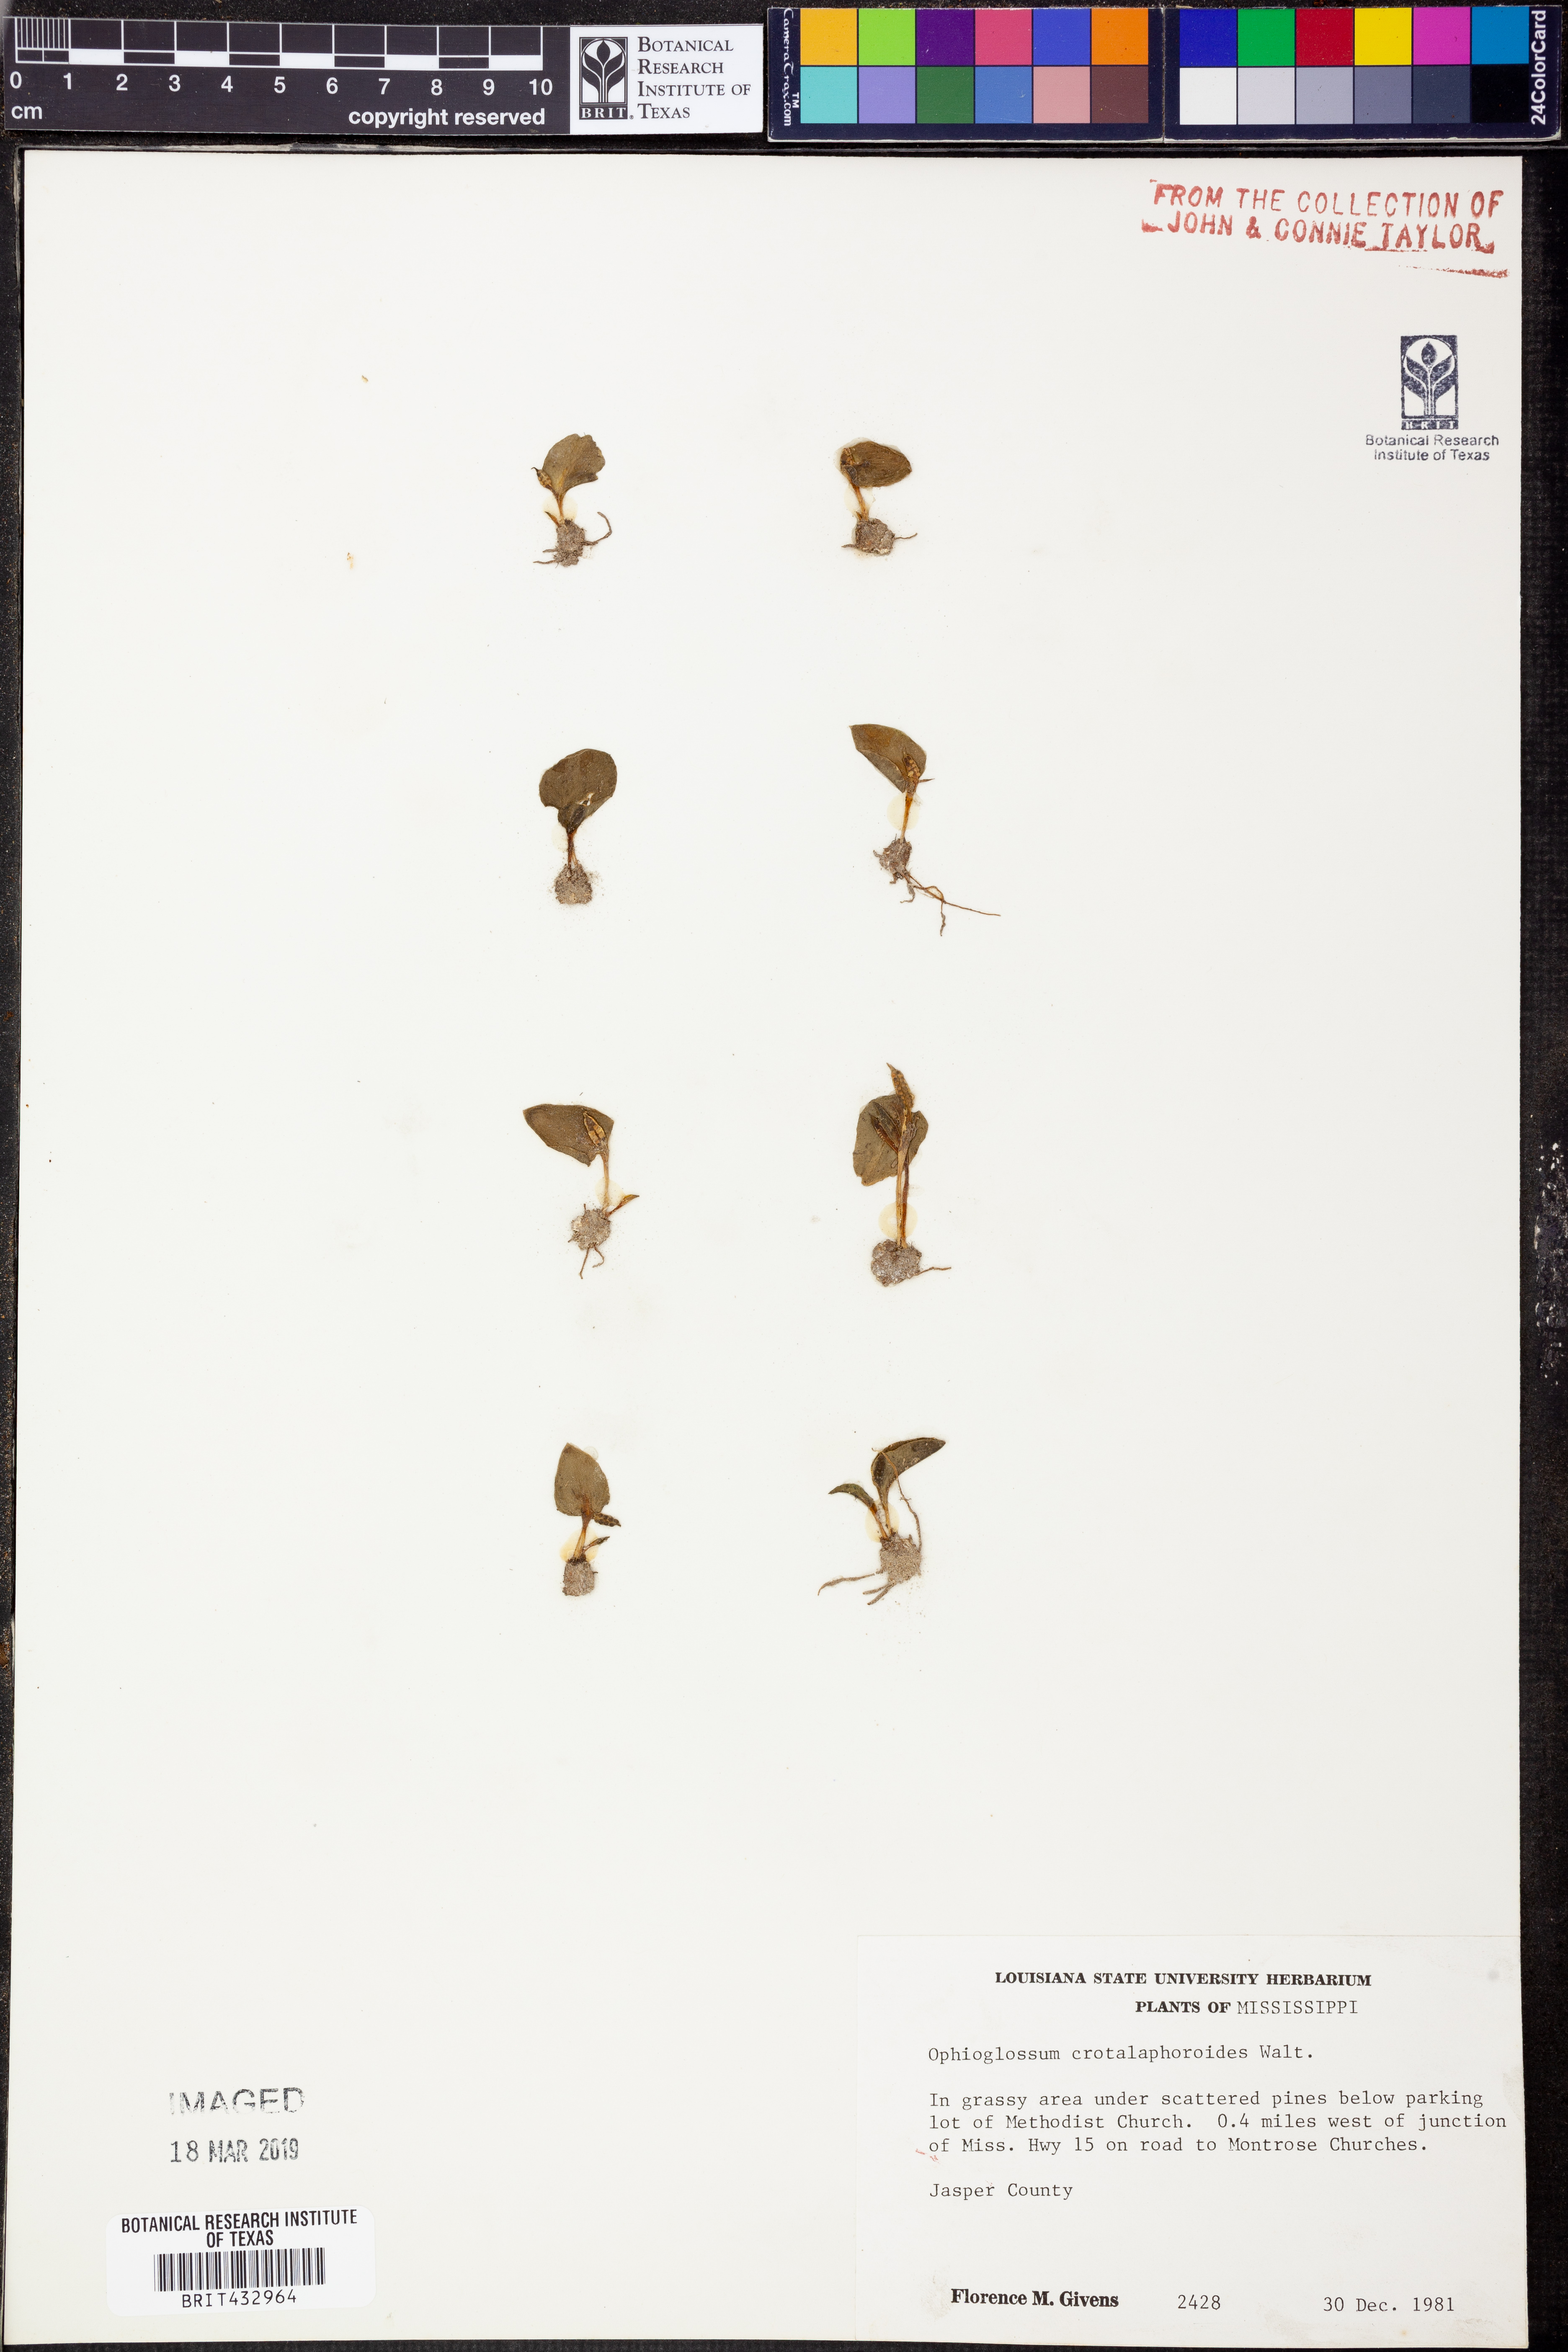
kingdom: Plantae
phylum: Tracheophyta
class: Polypodiopsida
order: Ophioglossales
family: Ophioglossaceae
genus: Ophioglossum
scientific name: Ophioglossum crotalophoroides
